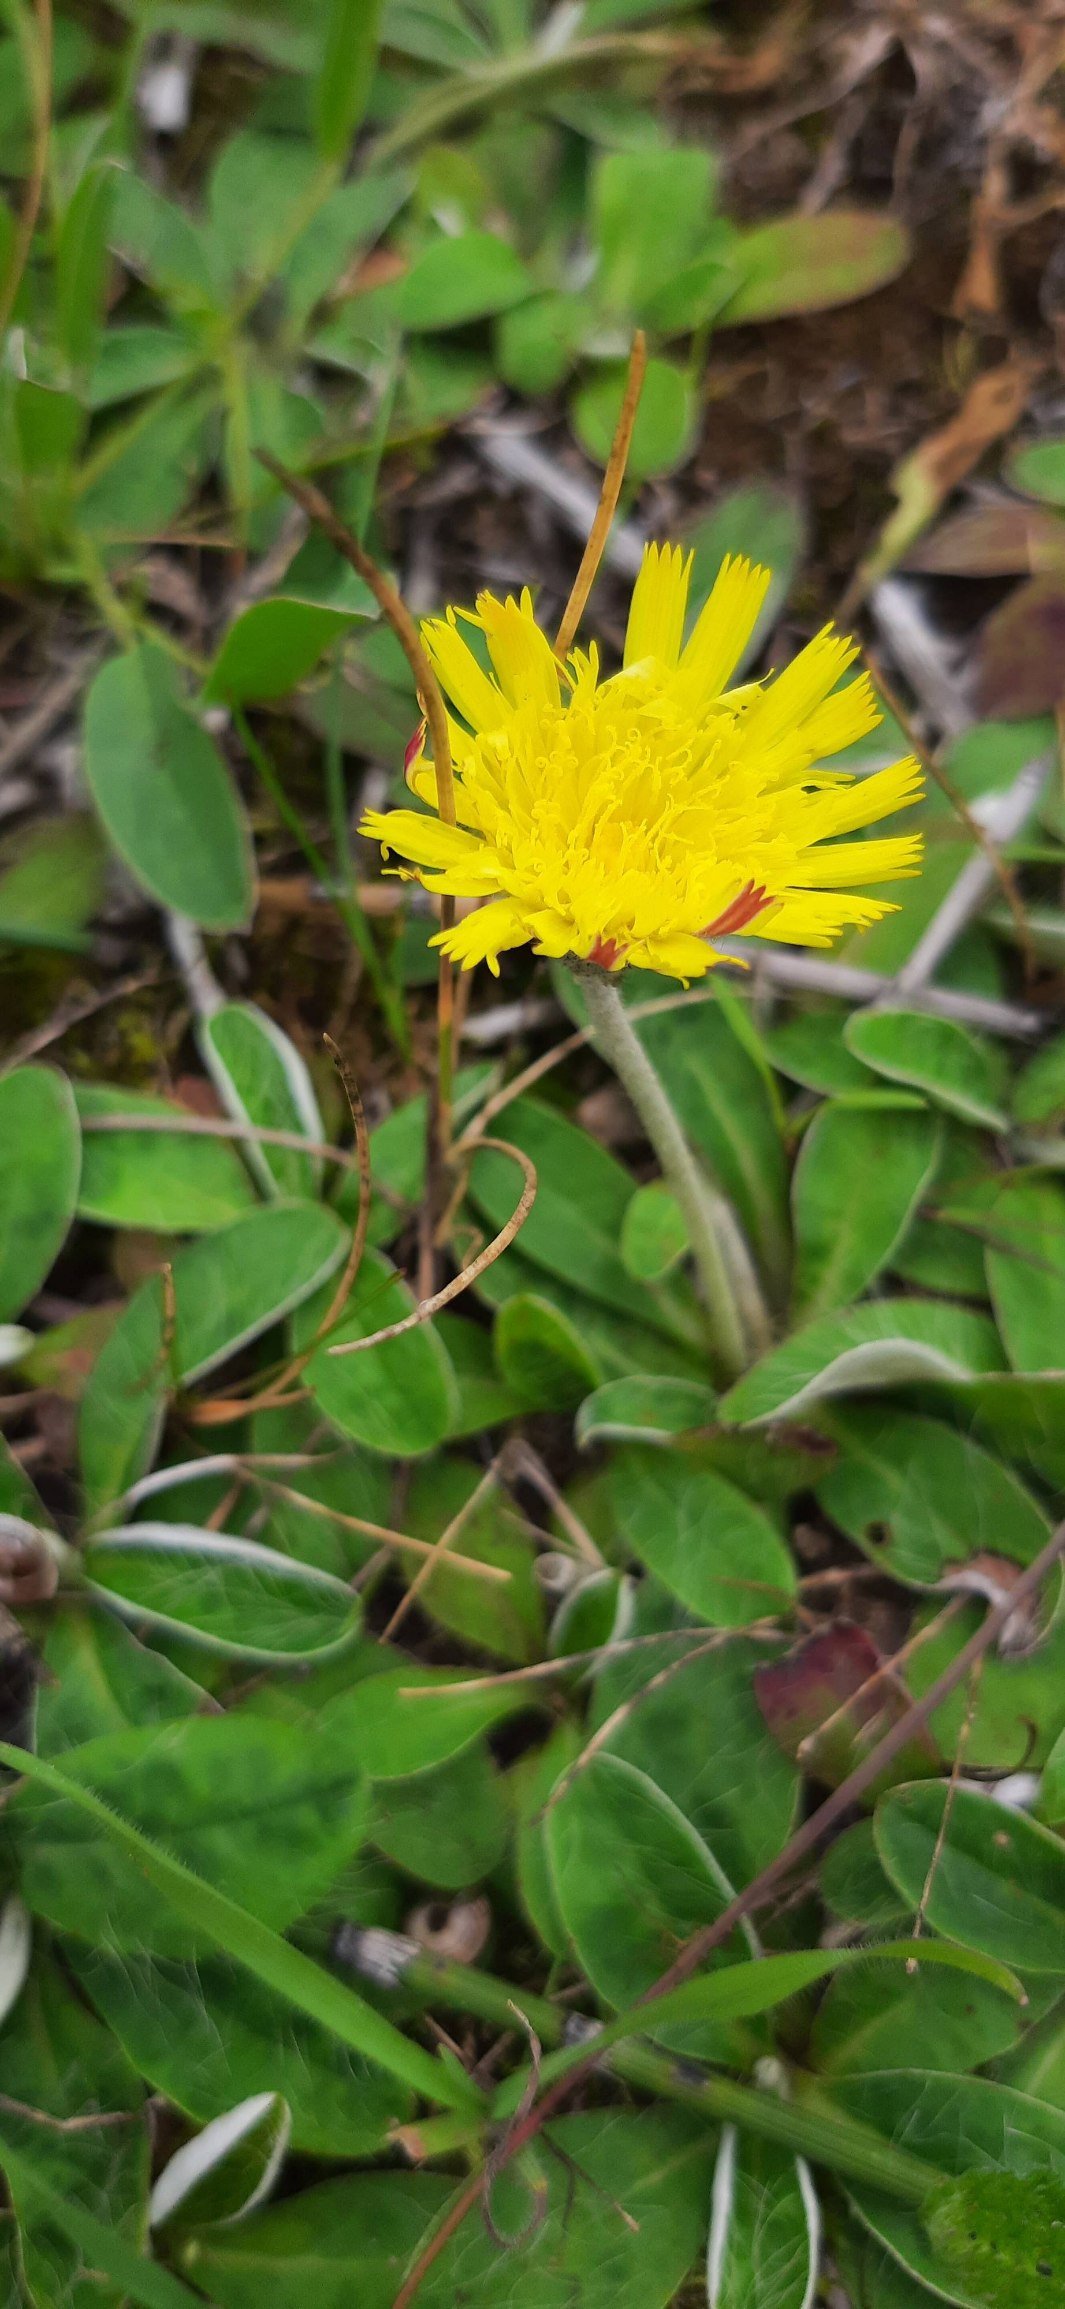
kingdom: Plantae
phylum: Tracheophyta
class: Magnoliopsida
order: Asterales
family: Asteraceae
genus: Pilosella
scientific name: Pilosella officinarum
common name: Håret høgeurt
